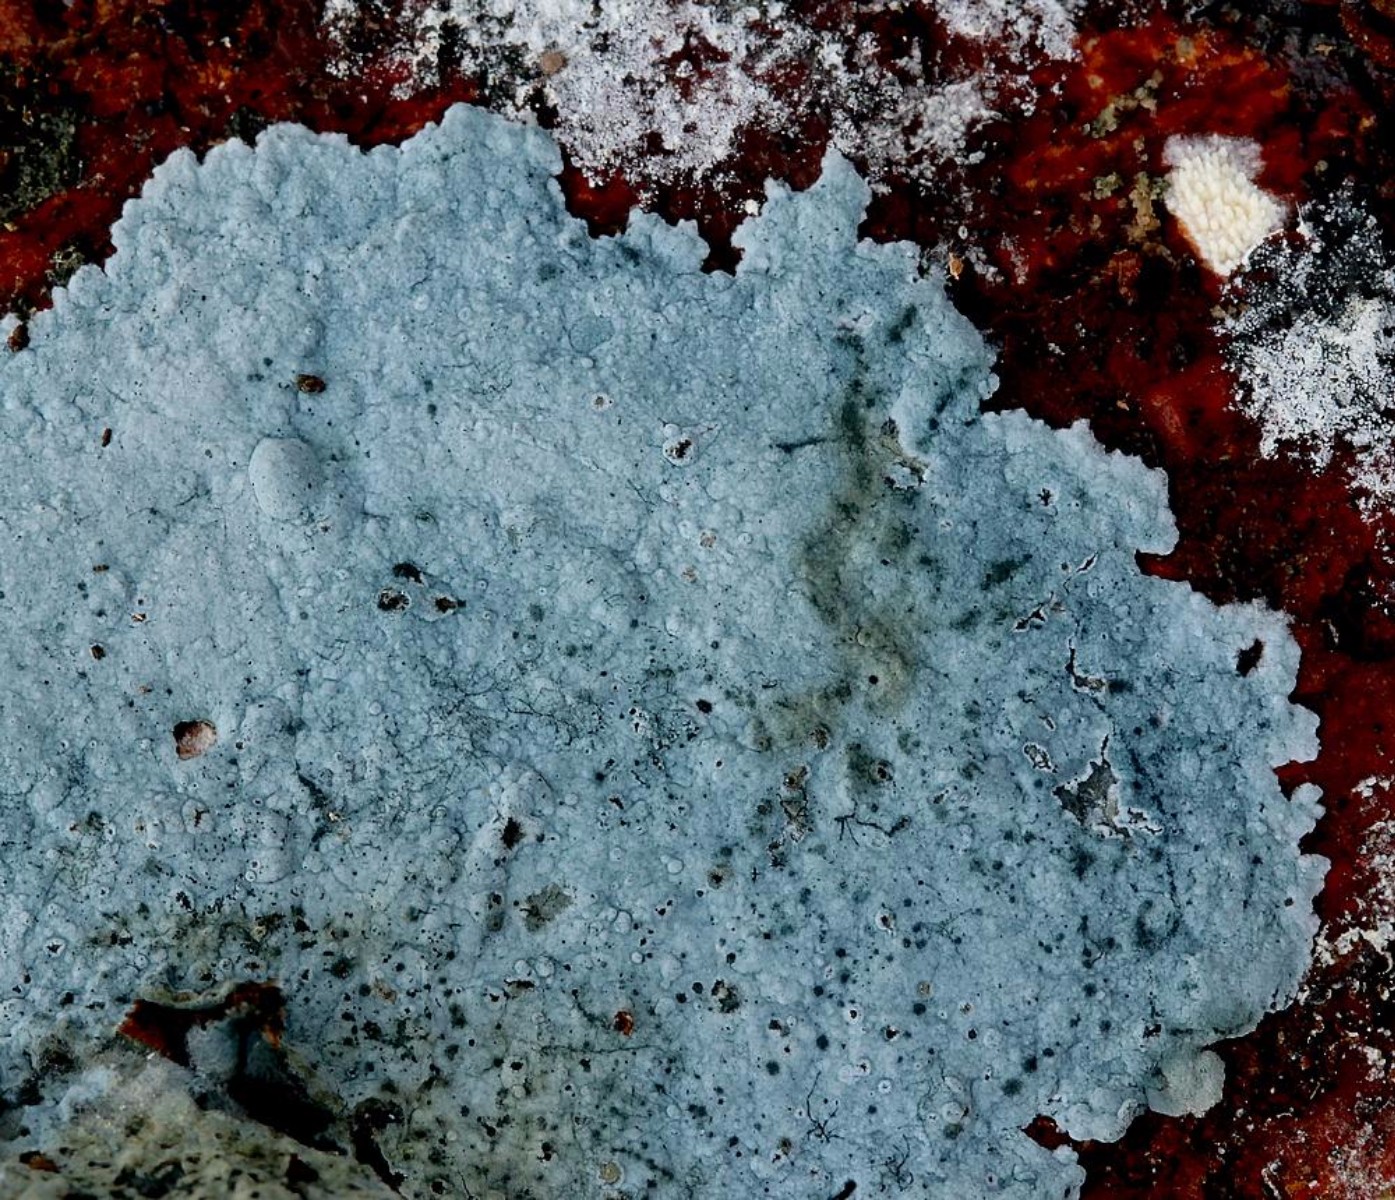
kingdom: Fungi
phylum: Basidiomycota
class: Agaricomycetes
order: Atheliales
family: Atheliaceae
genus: Byssocorticium
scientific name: Byssocorticium atrovirens
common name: blå førnehinde
